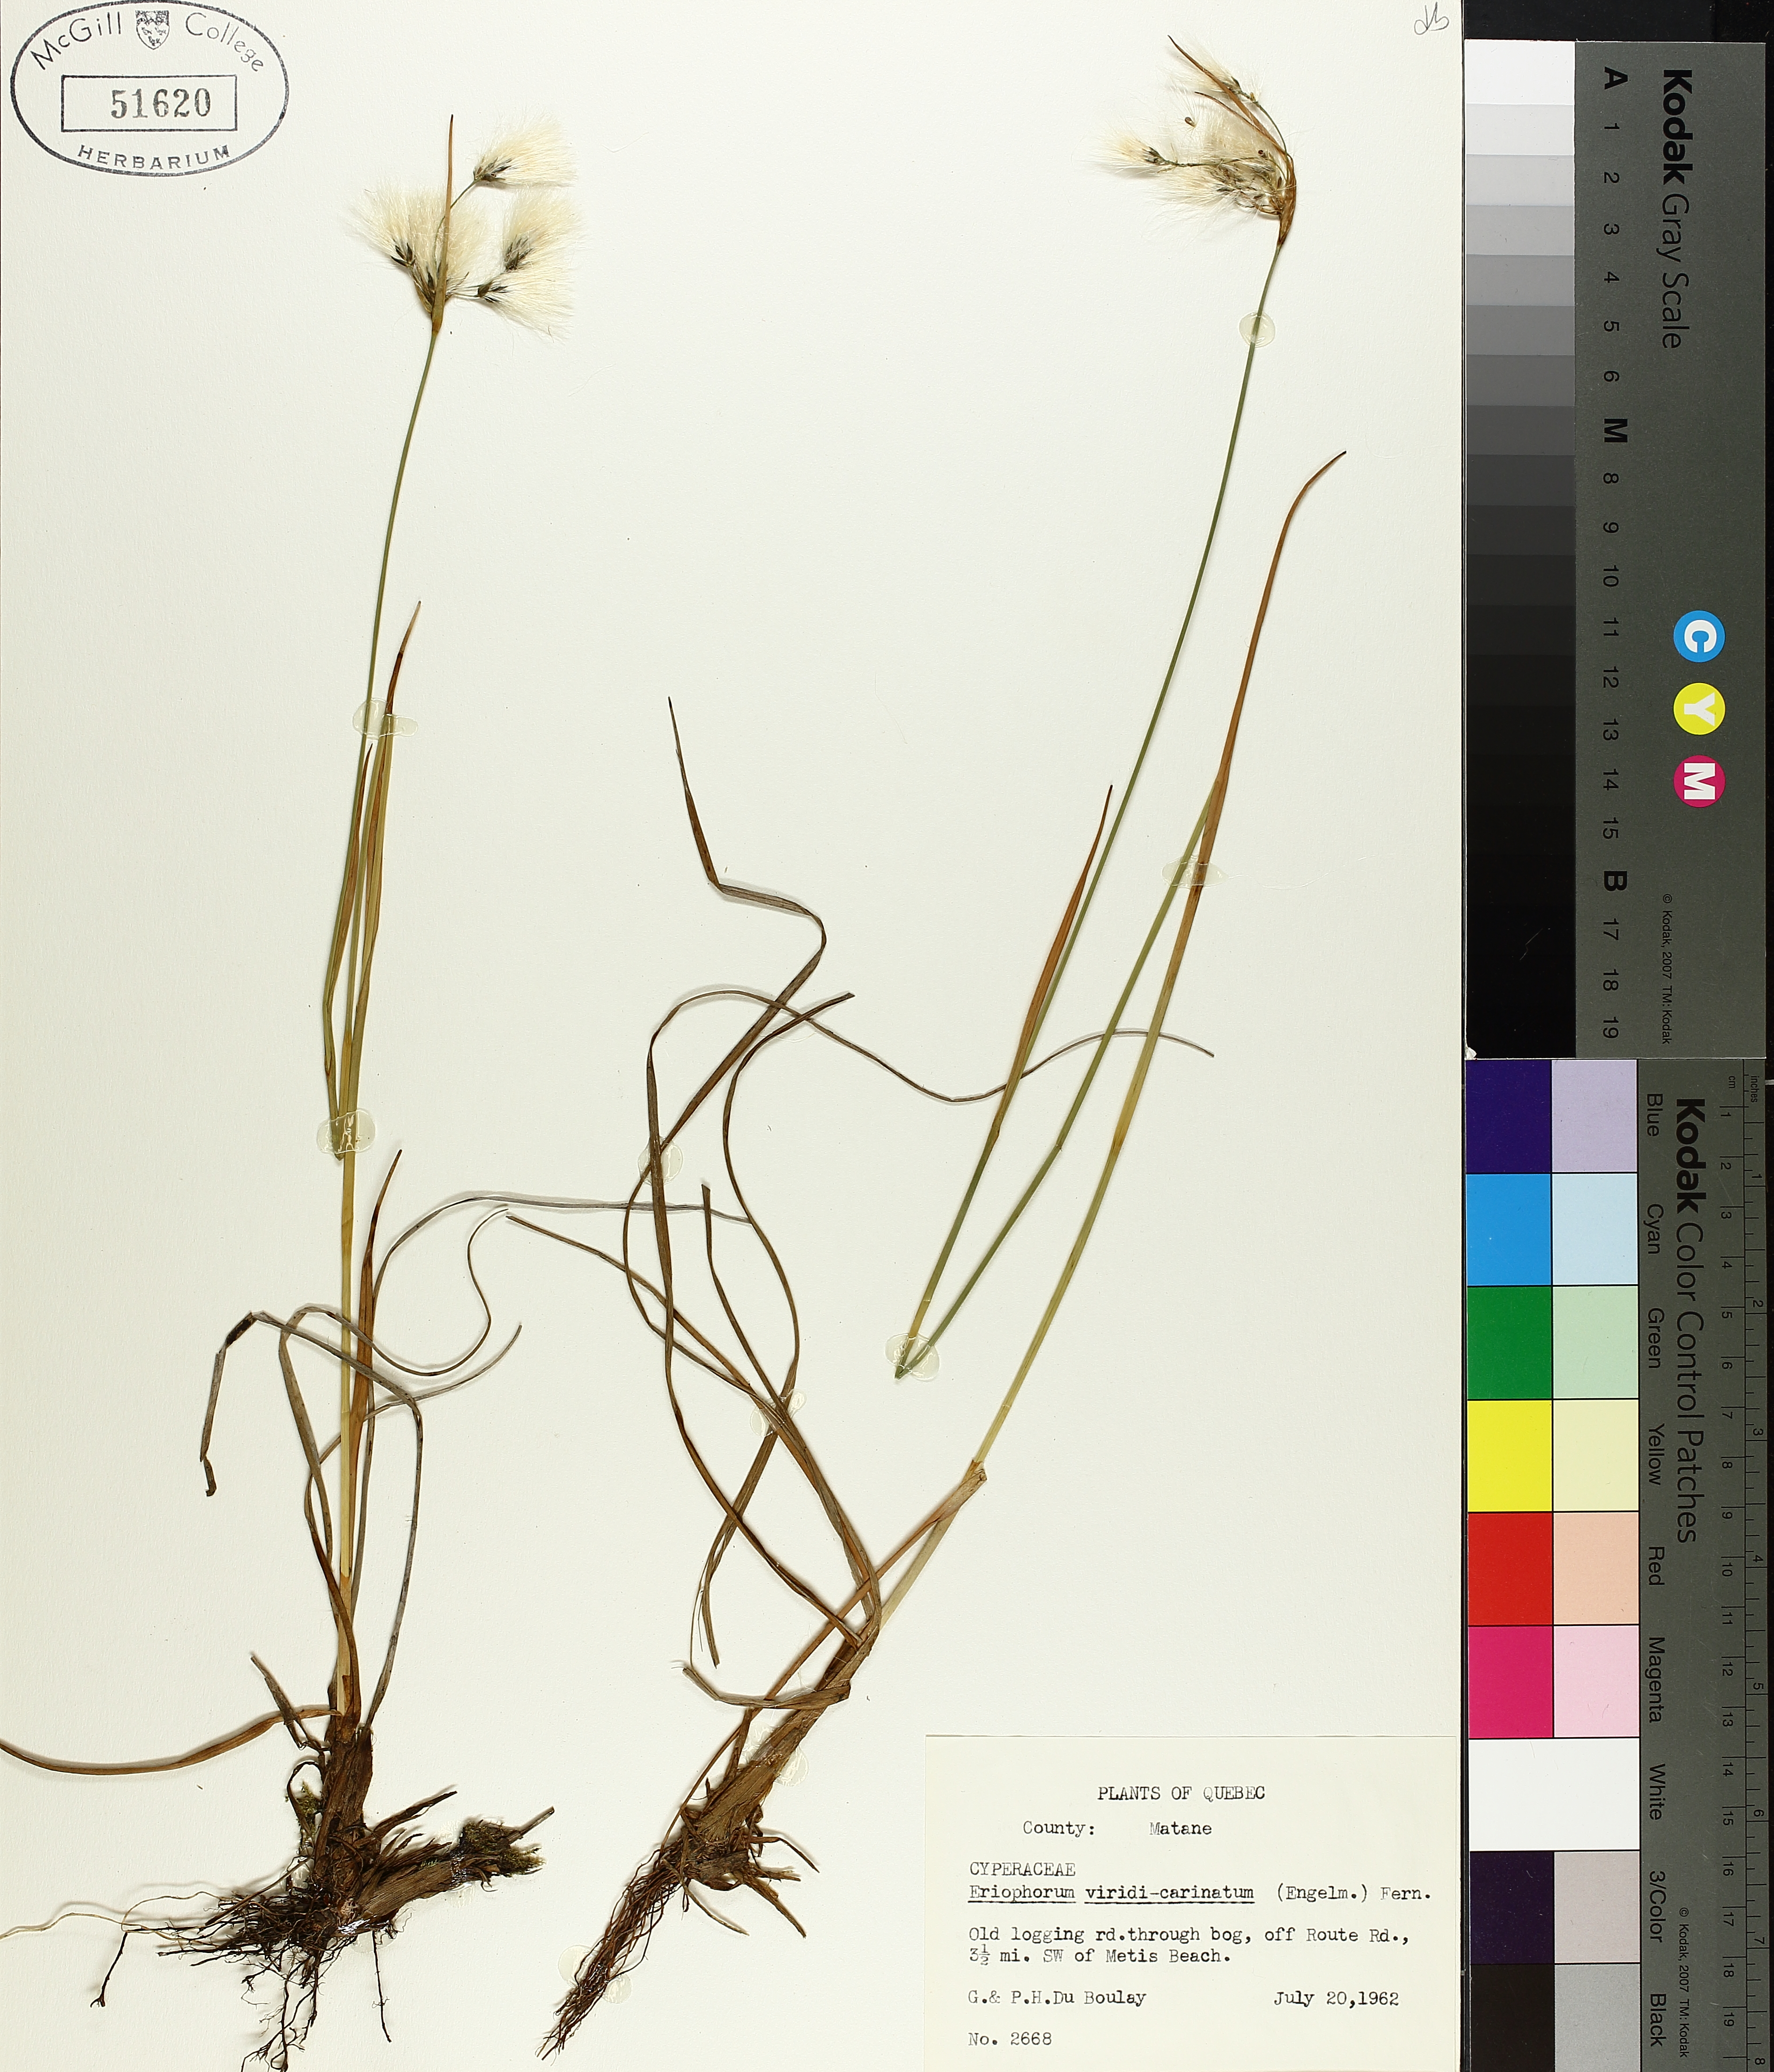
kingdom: Plantae
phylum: Tracheophyta
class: Liliopsida
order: Poales
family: Cyperaceae
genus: Eriophorum
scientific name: Eriophorum viridicarinatum
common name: Green-keeled cottongrass
